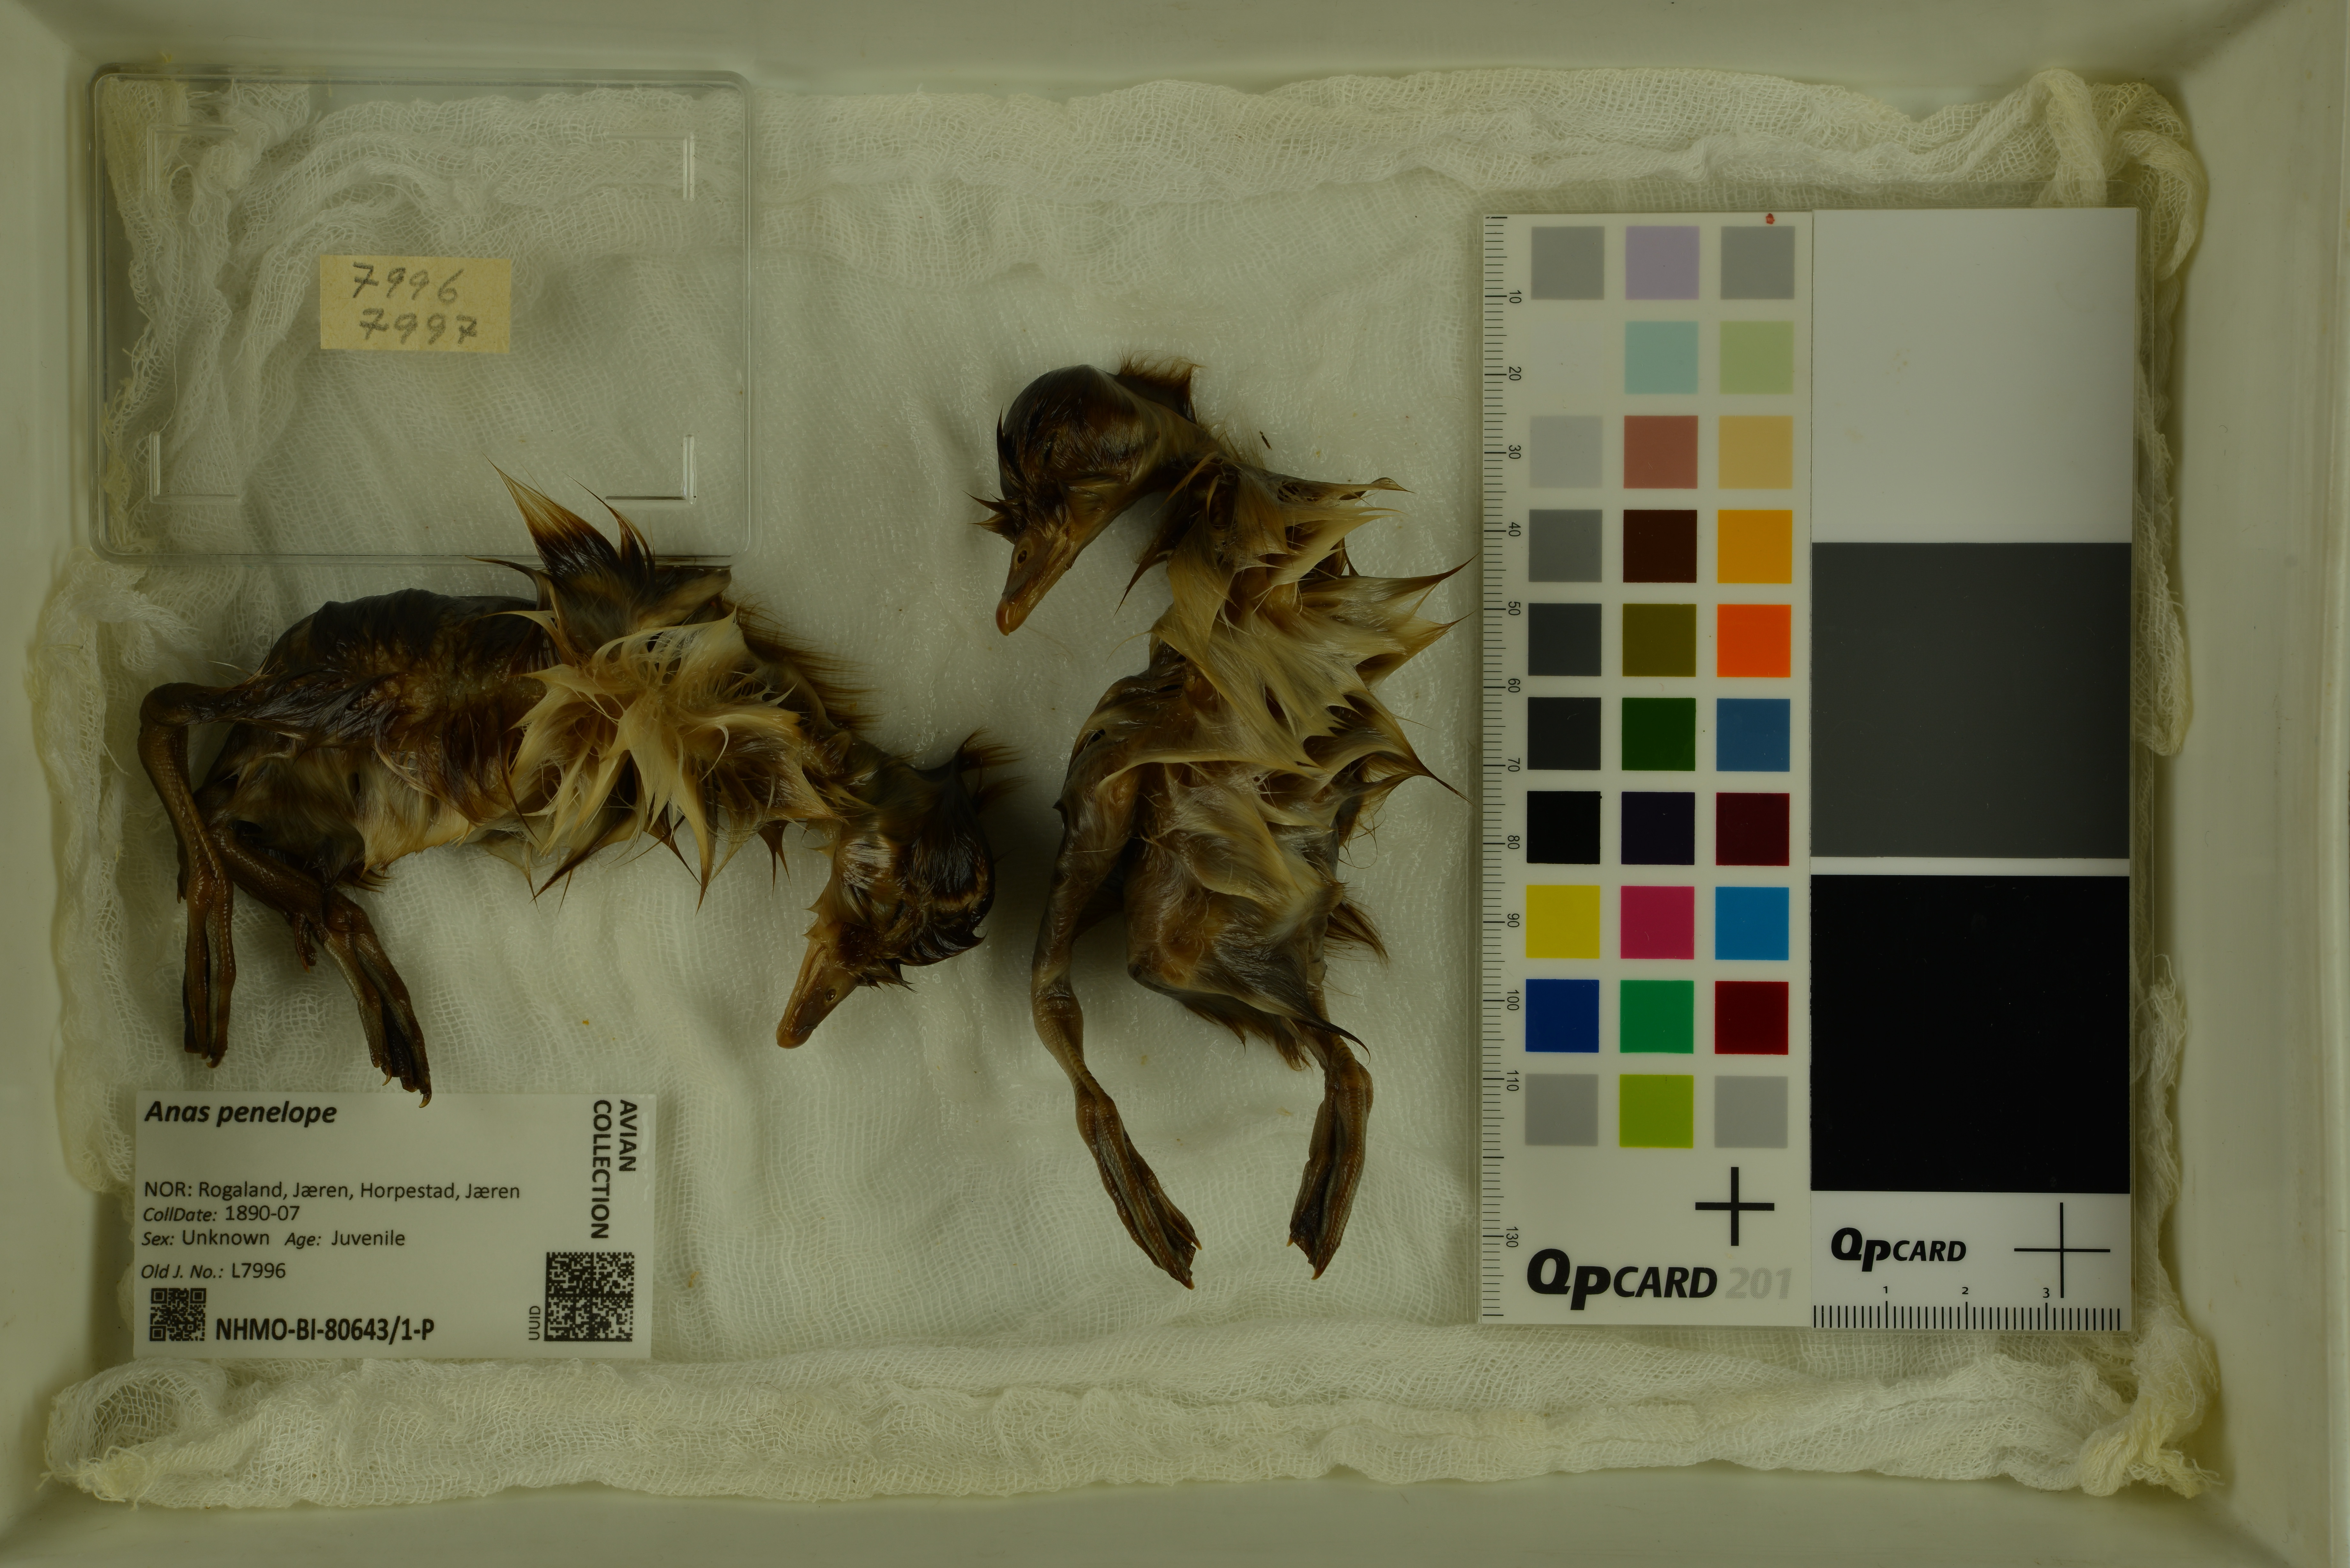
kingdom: Animalia
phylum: Chordata
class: Aves
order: Anseriformes
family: Anatidae
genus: Mareca
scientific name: Mareca penelope
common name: Eurasian wigeon
